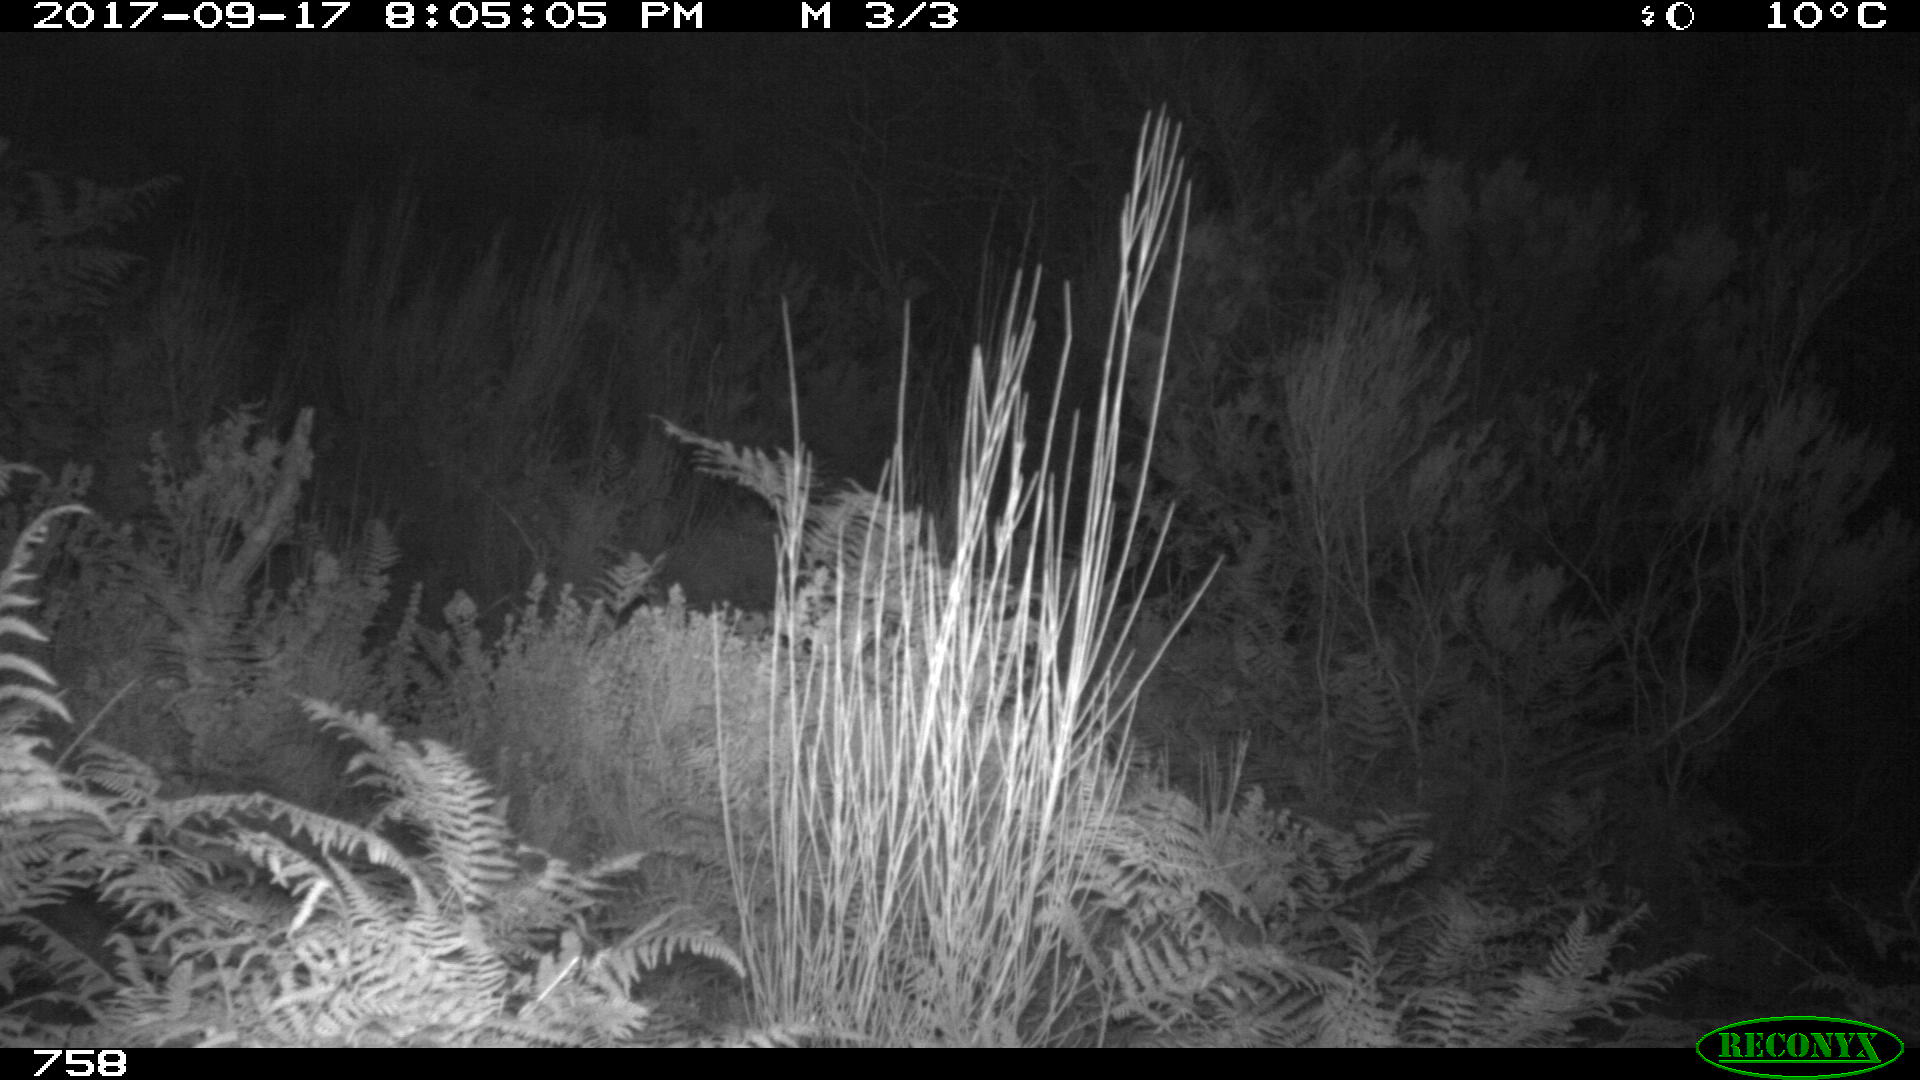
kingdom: Animalia
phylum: Chordata
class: Mammalia
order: Artiodactyla
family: Suidae
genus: Sus
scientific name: Sus scrofa
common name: Wild boar
